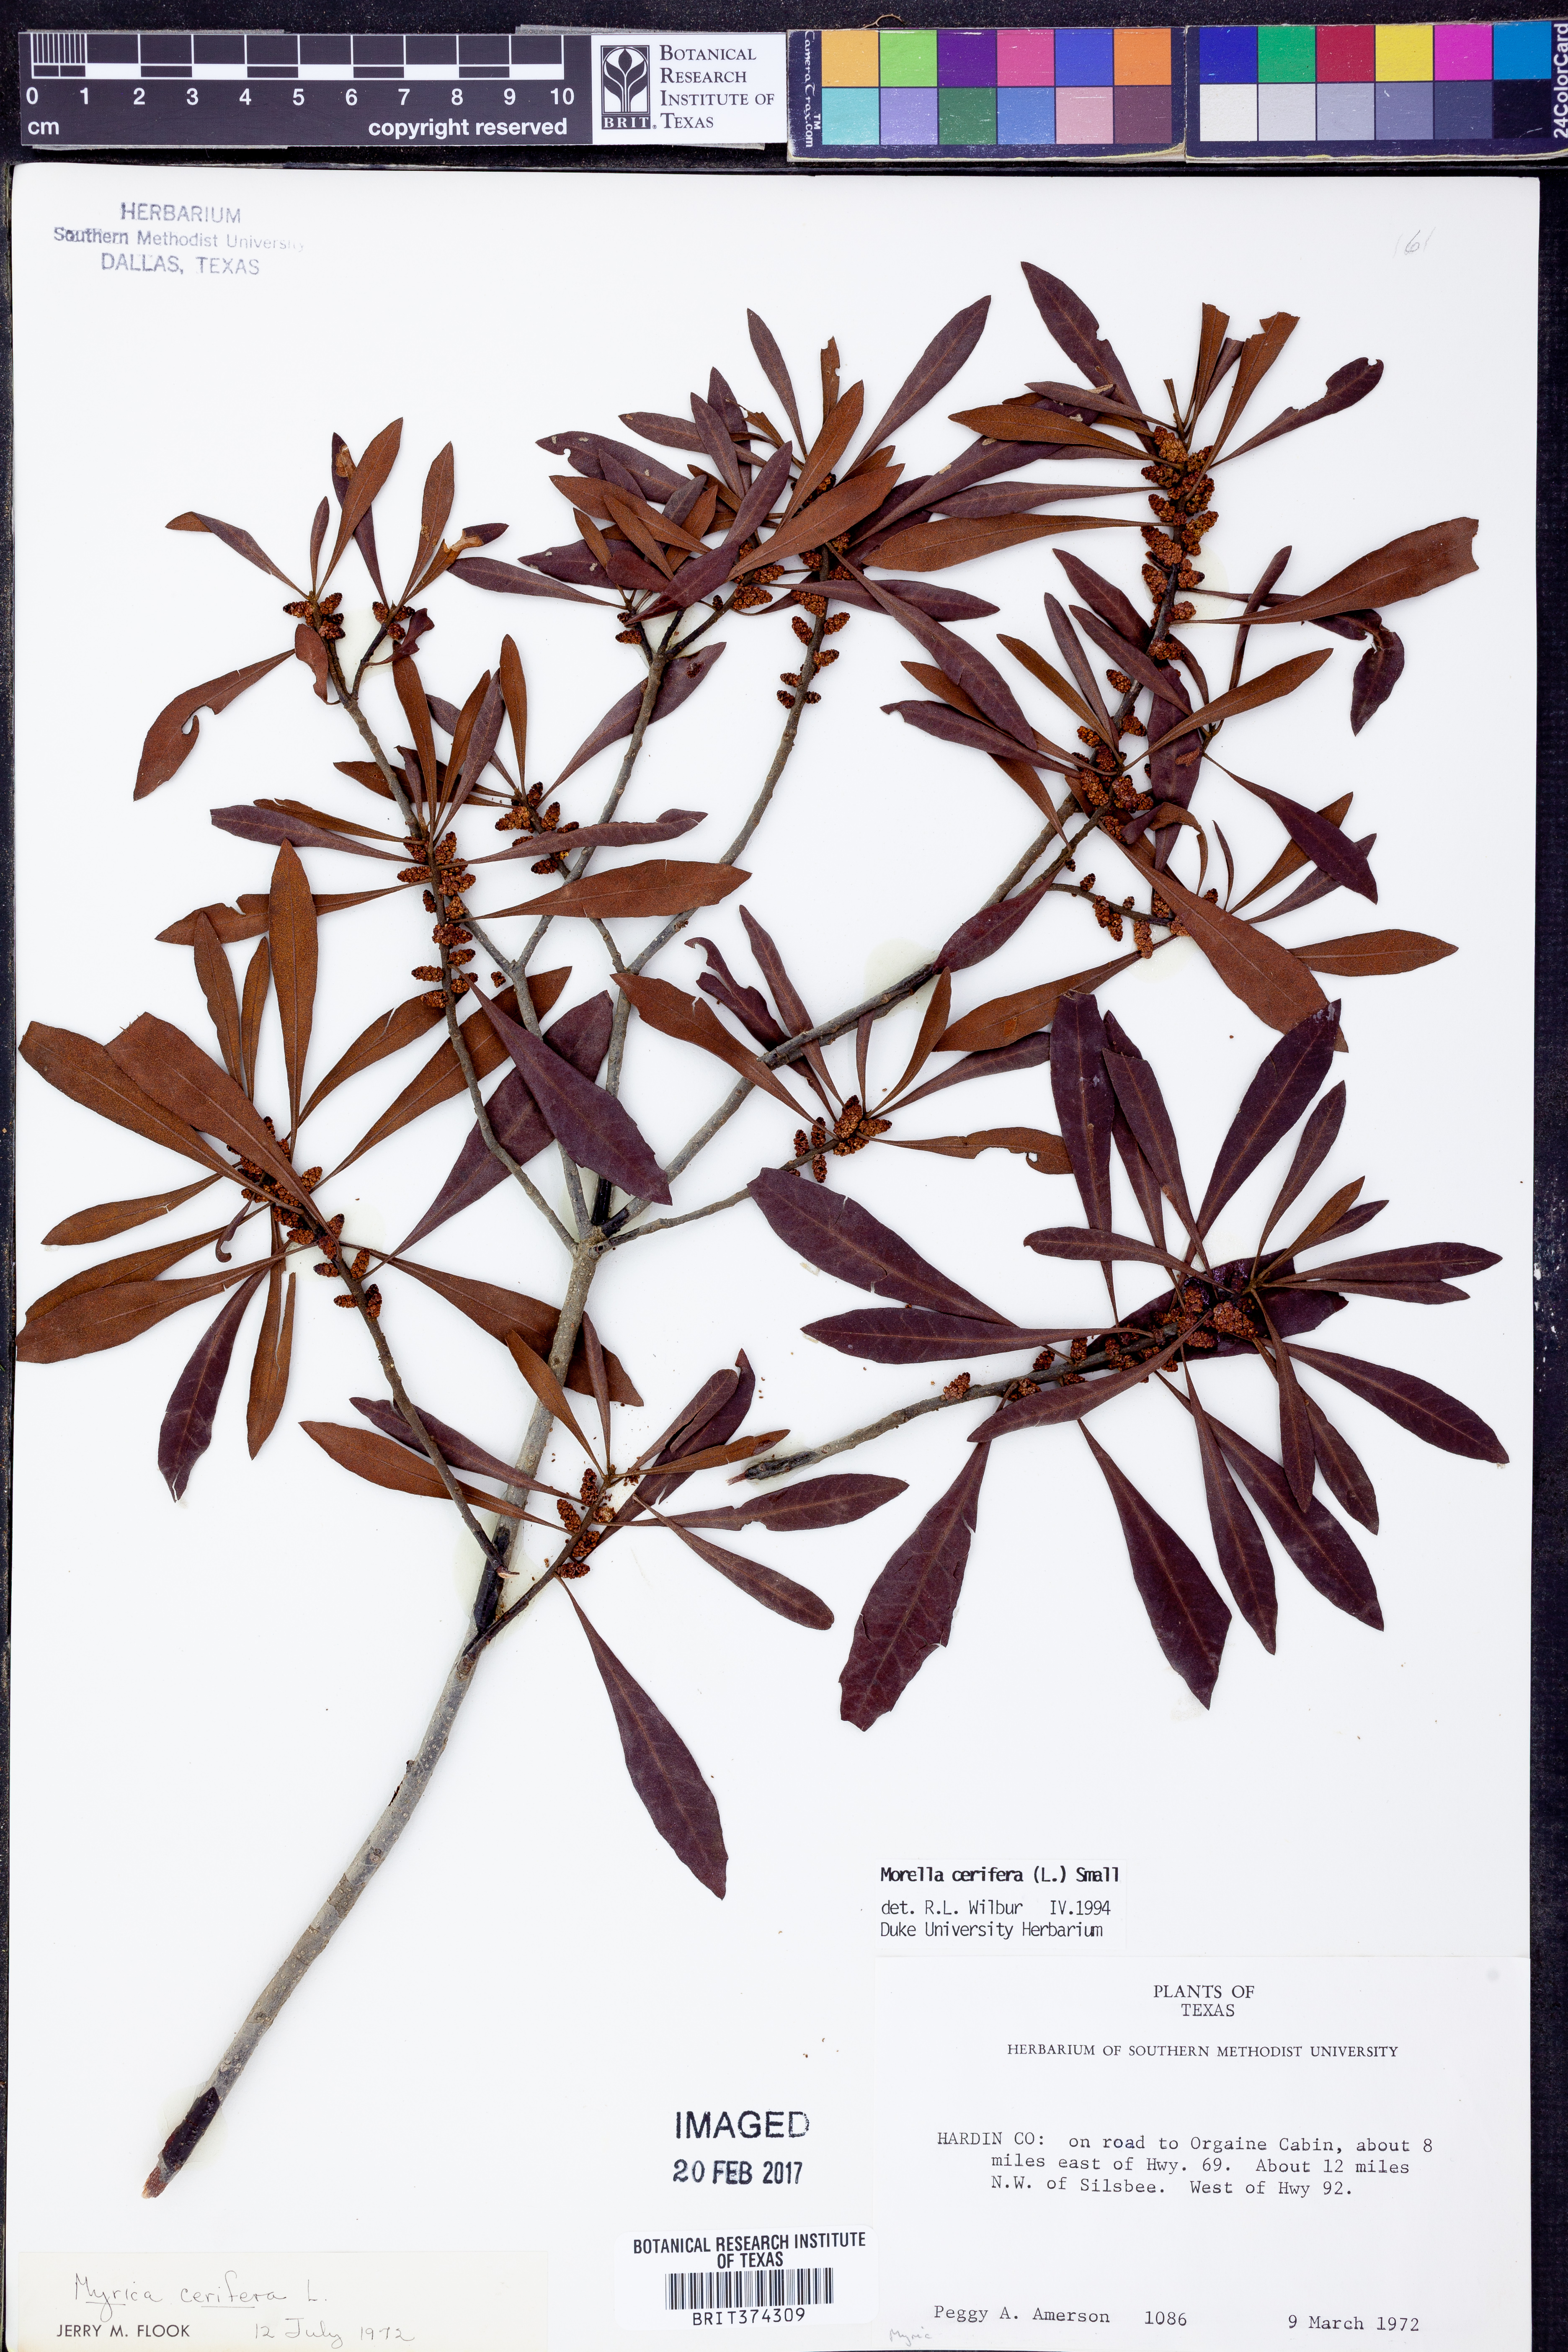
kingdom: Plantae
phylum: Tracheophyta
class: Magnoliopsida
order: Fagales
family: Myricaceae
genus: Morella
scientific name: Morella cerifera
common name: Wax myrtle
